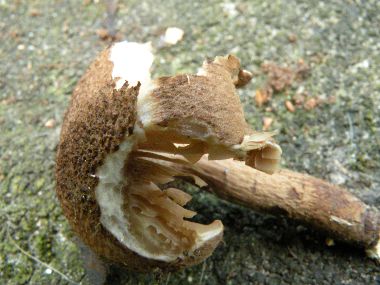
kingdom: Fungi
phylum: Basidiomycota
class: Agaricomycetes
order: Agaricales
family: Inocybaceae
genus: Inocybe
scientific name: Inocybe lanuginosa
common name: uldskællet trævlhat
